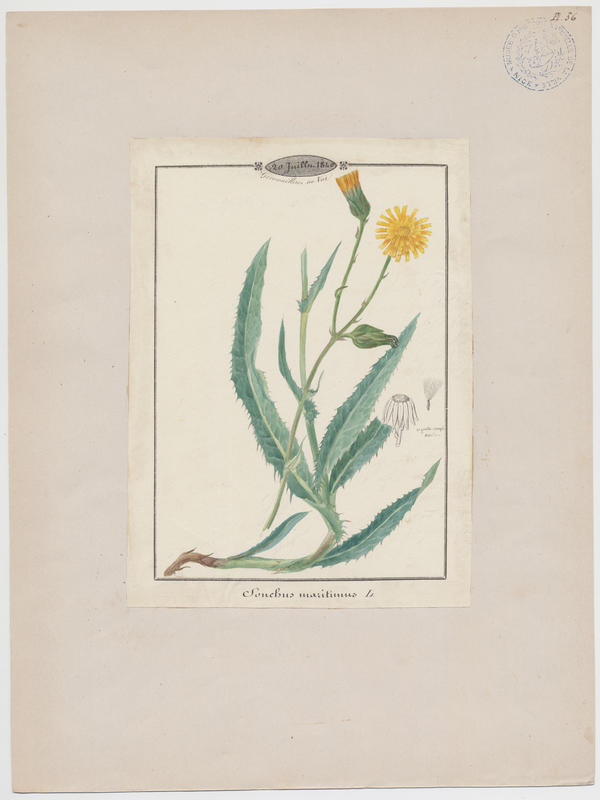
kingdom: Plantae
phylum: Tracheophyta
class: Magnoliopsida
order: Asterales
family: Asteraceae
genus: Sonchus
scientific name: Sonchus maritimus
